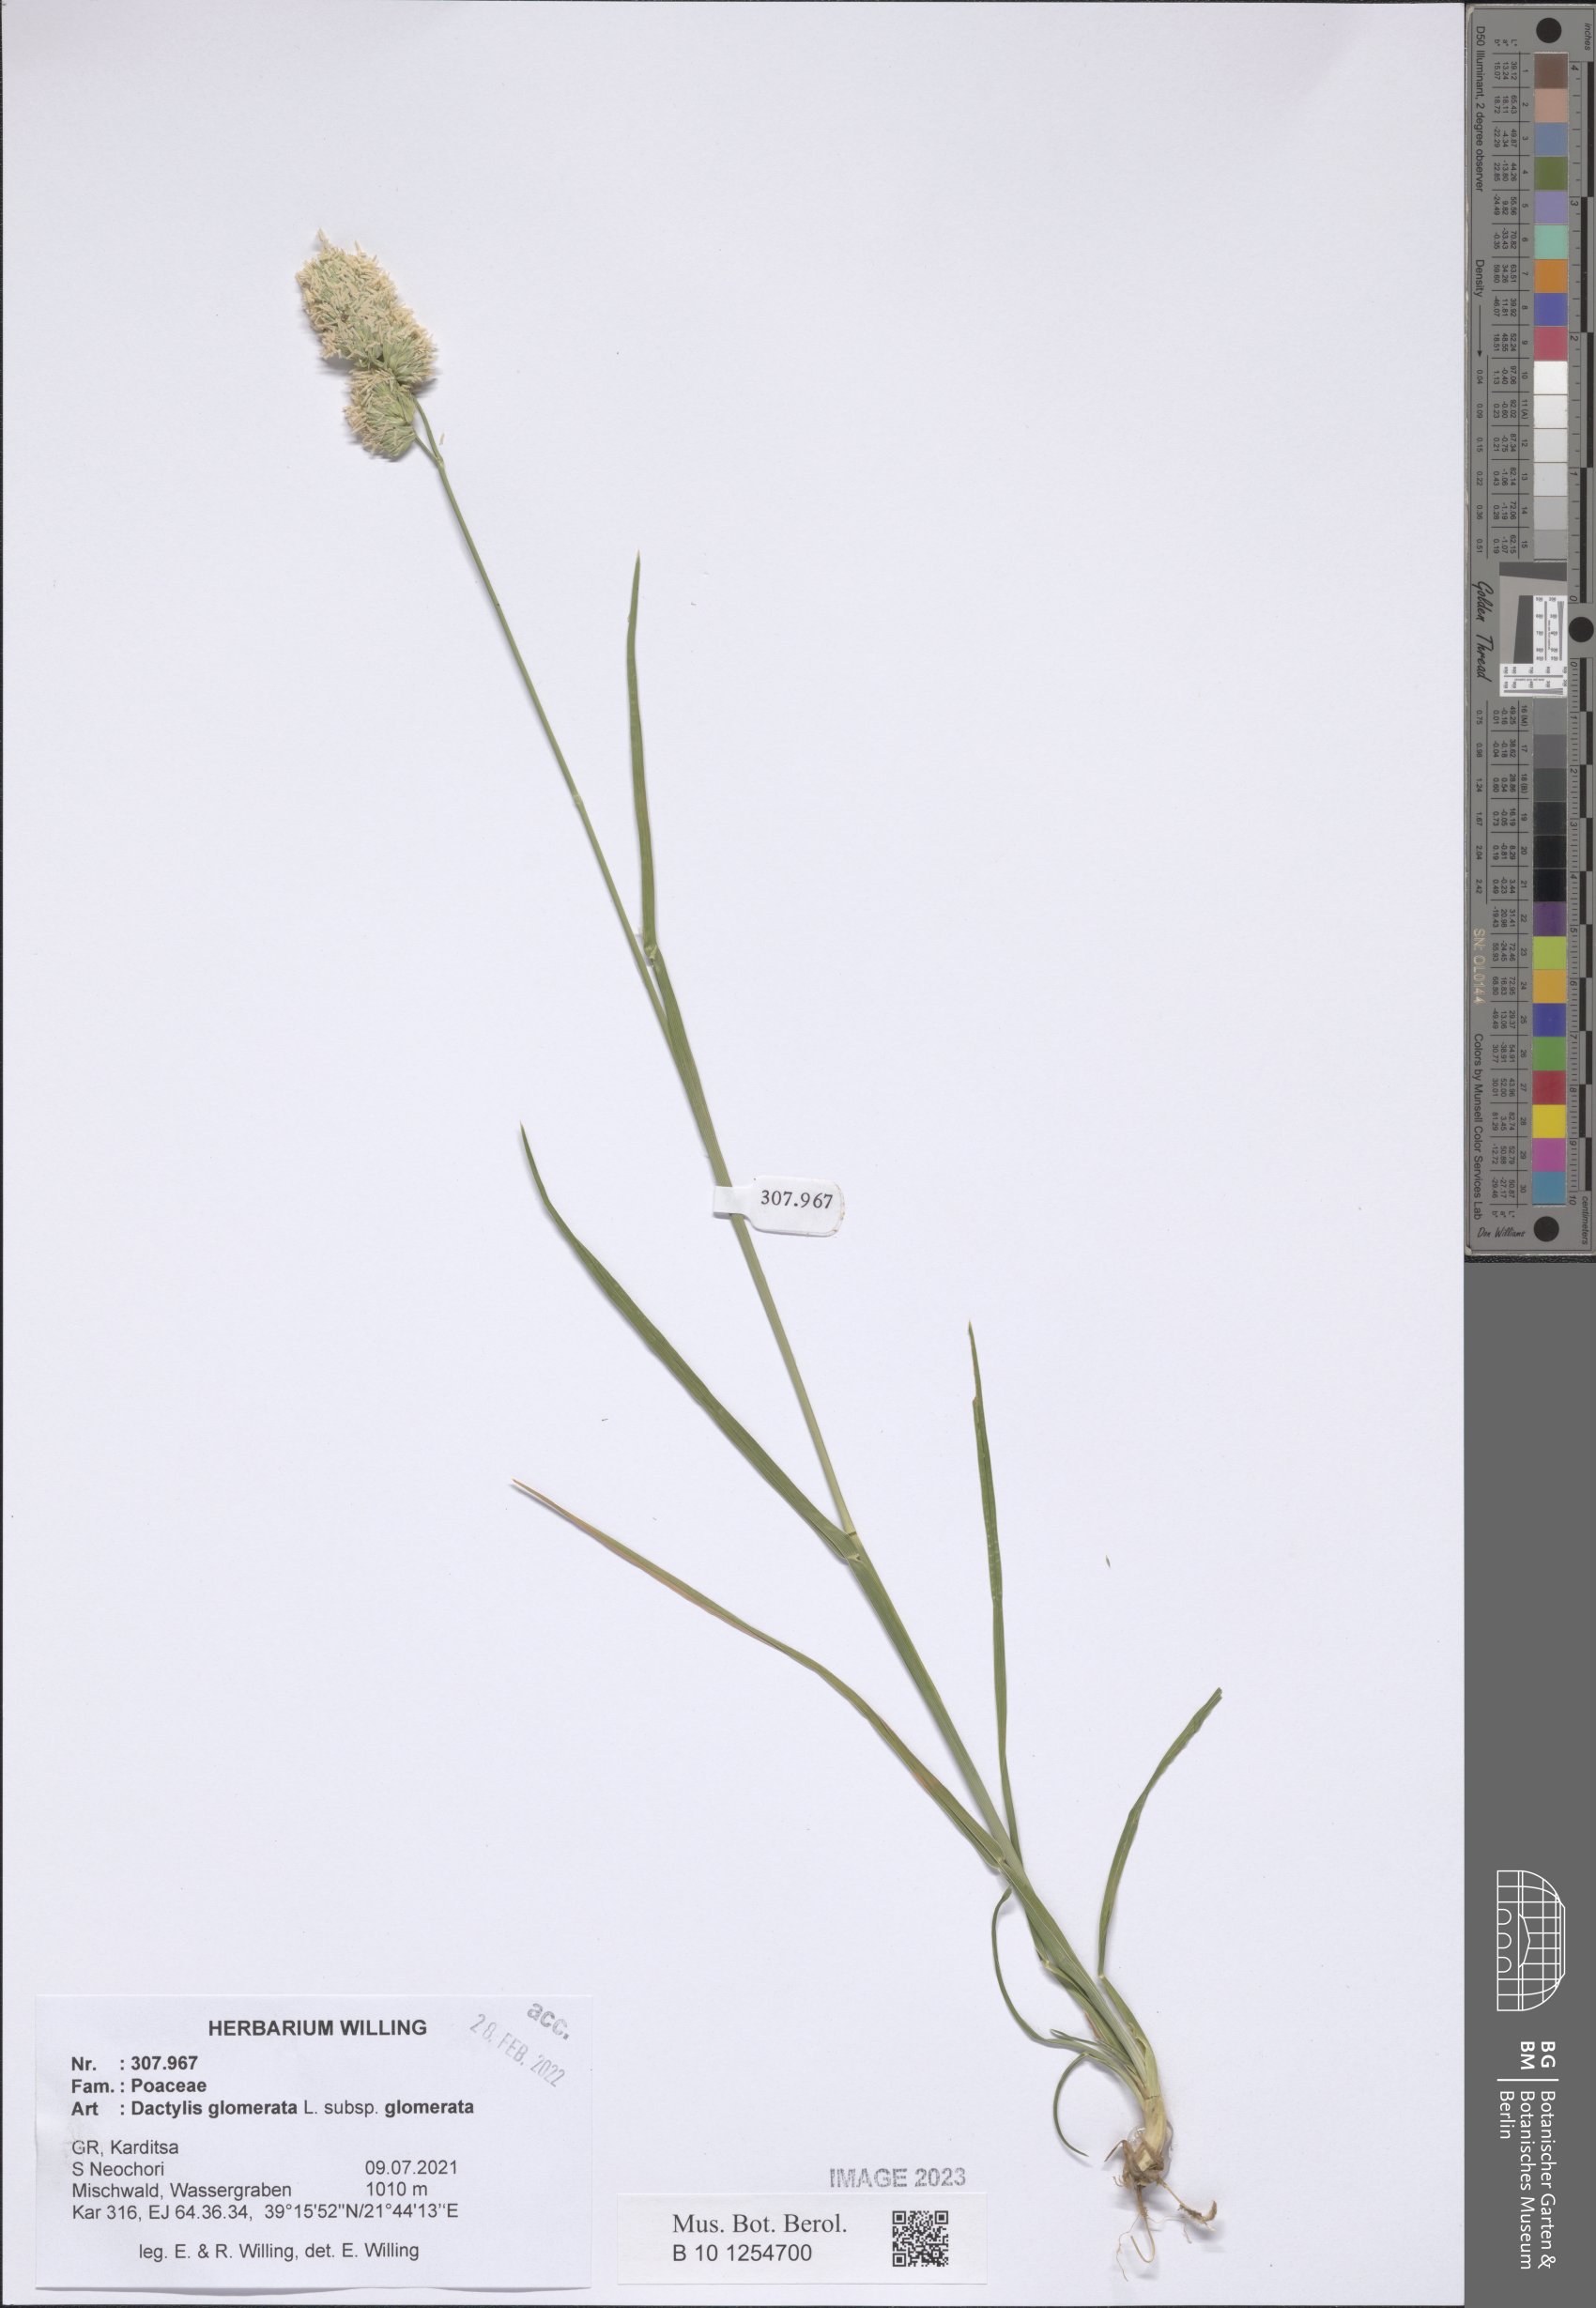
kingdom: Plantae
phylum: Tracheophyta
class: Liliopsida
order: Poales
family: Poaceae
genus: Dactylis
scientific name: Dactylis glomerata
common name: Orchardgrass
